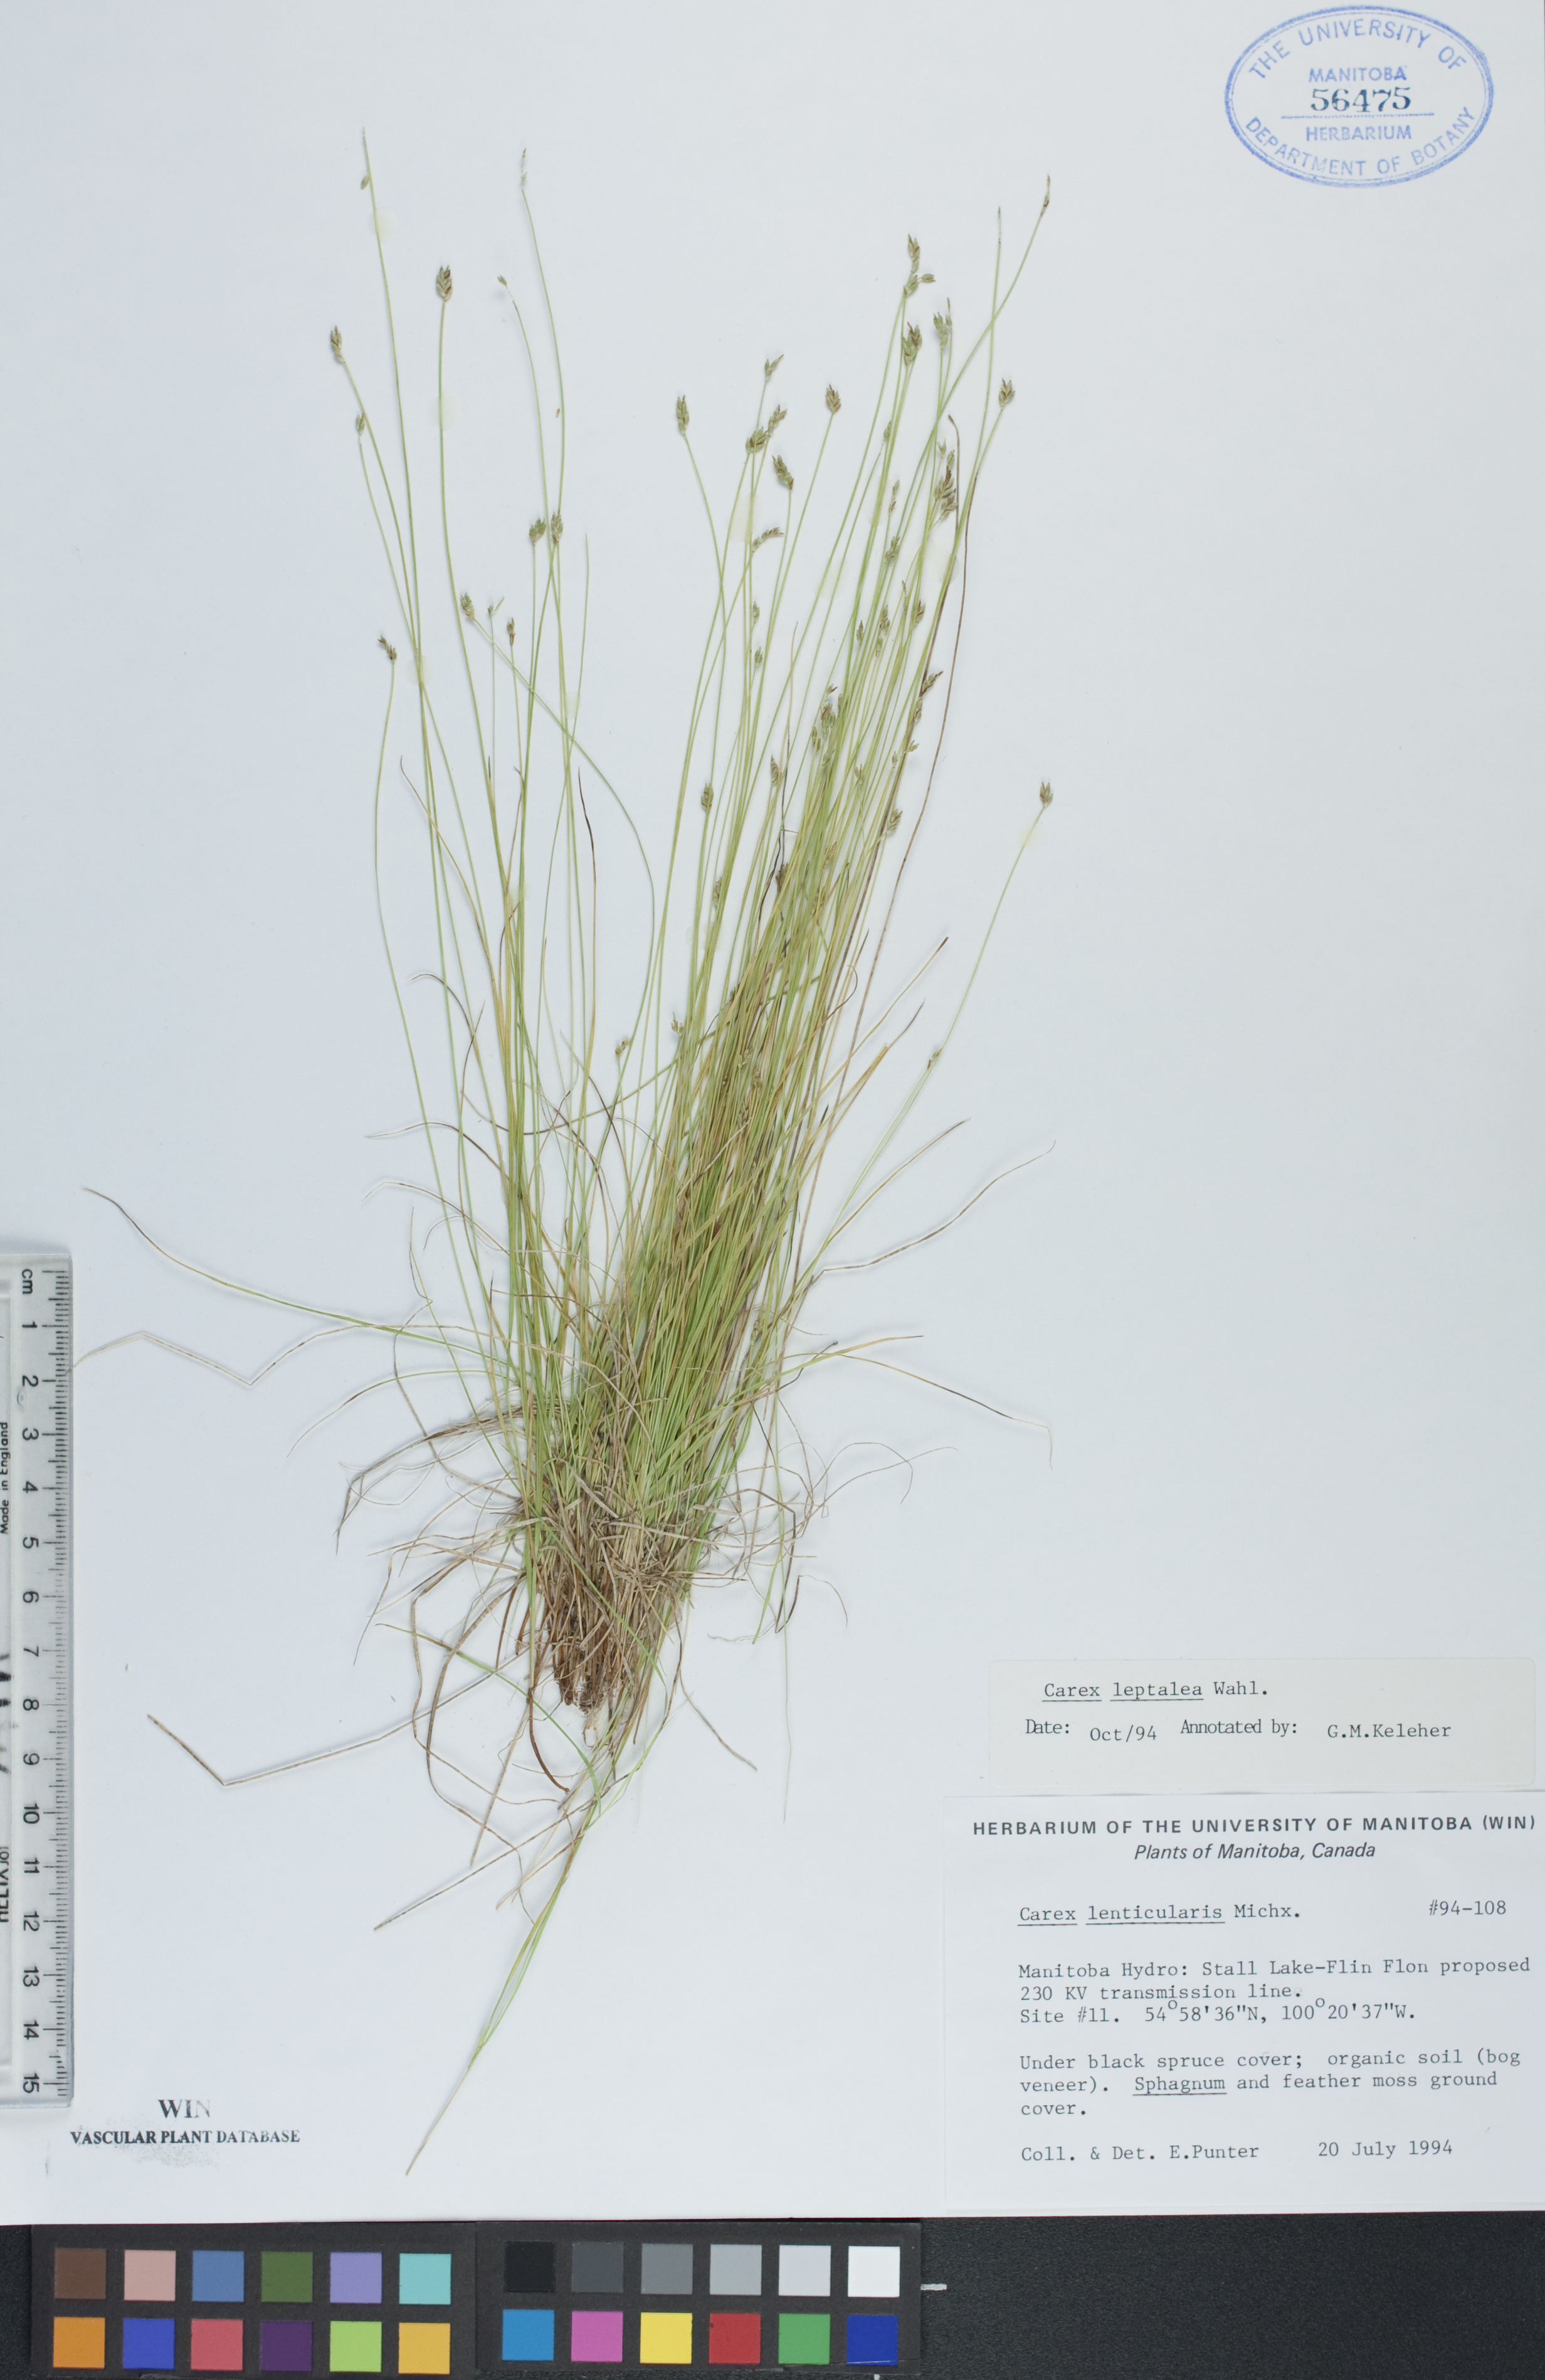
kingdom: Plantae
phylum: Tracheophyta
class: Liliopsida
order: Poales
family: Cyperaceae
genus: Carex
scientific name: Carex leptalea
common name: Bristly-stalked sedge
